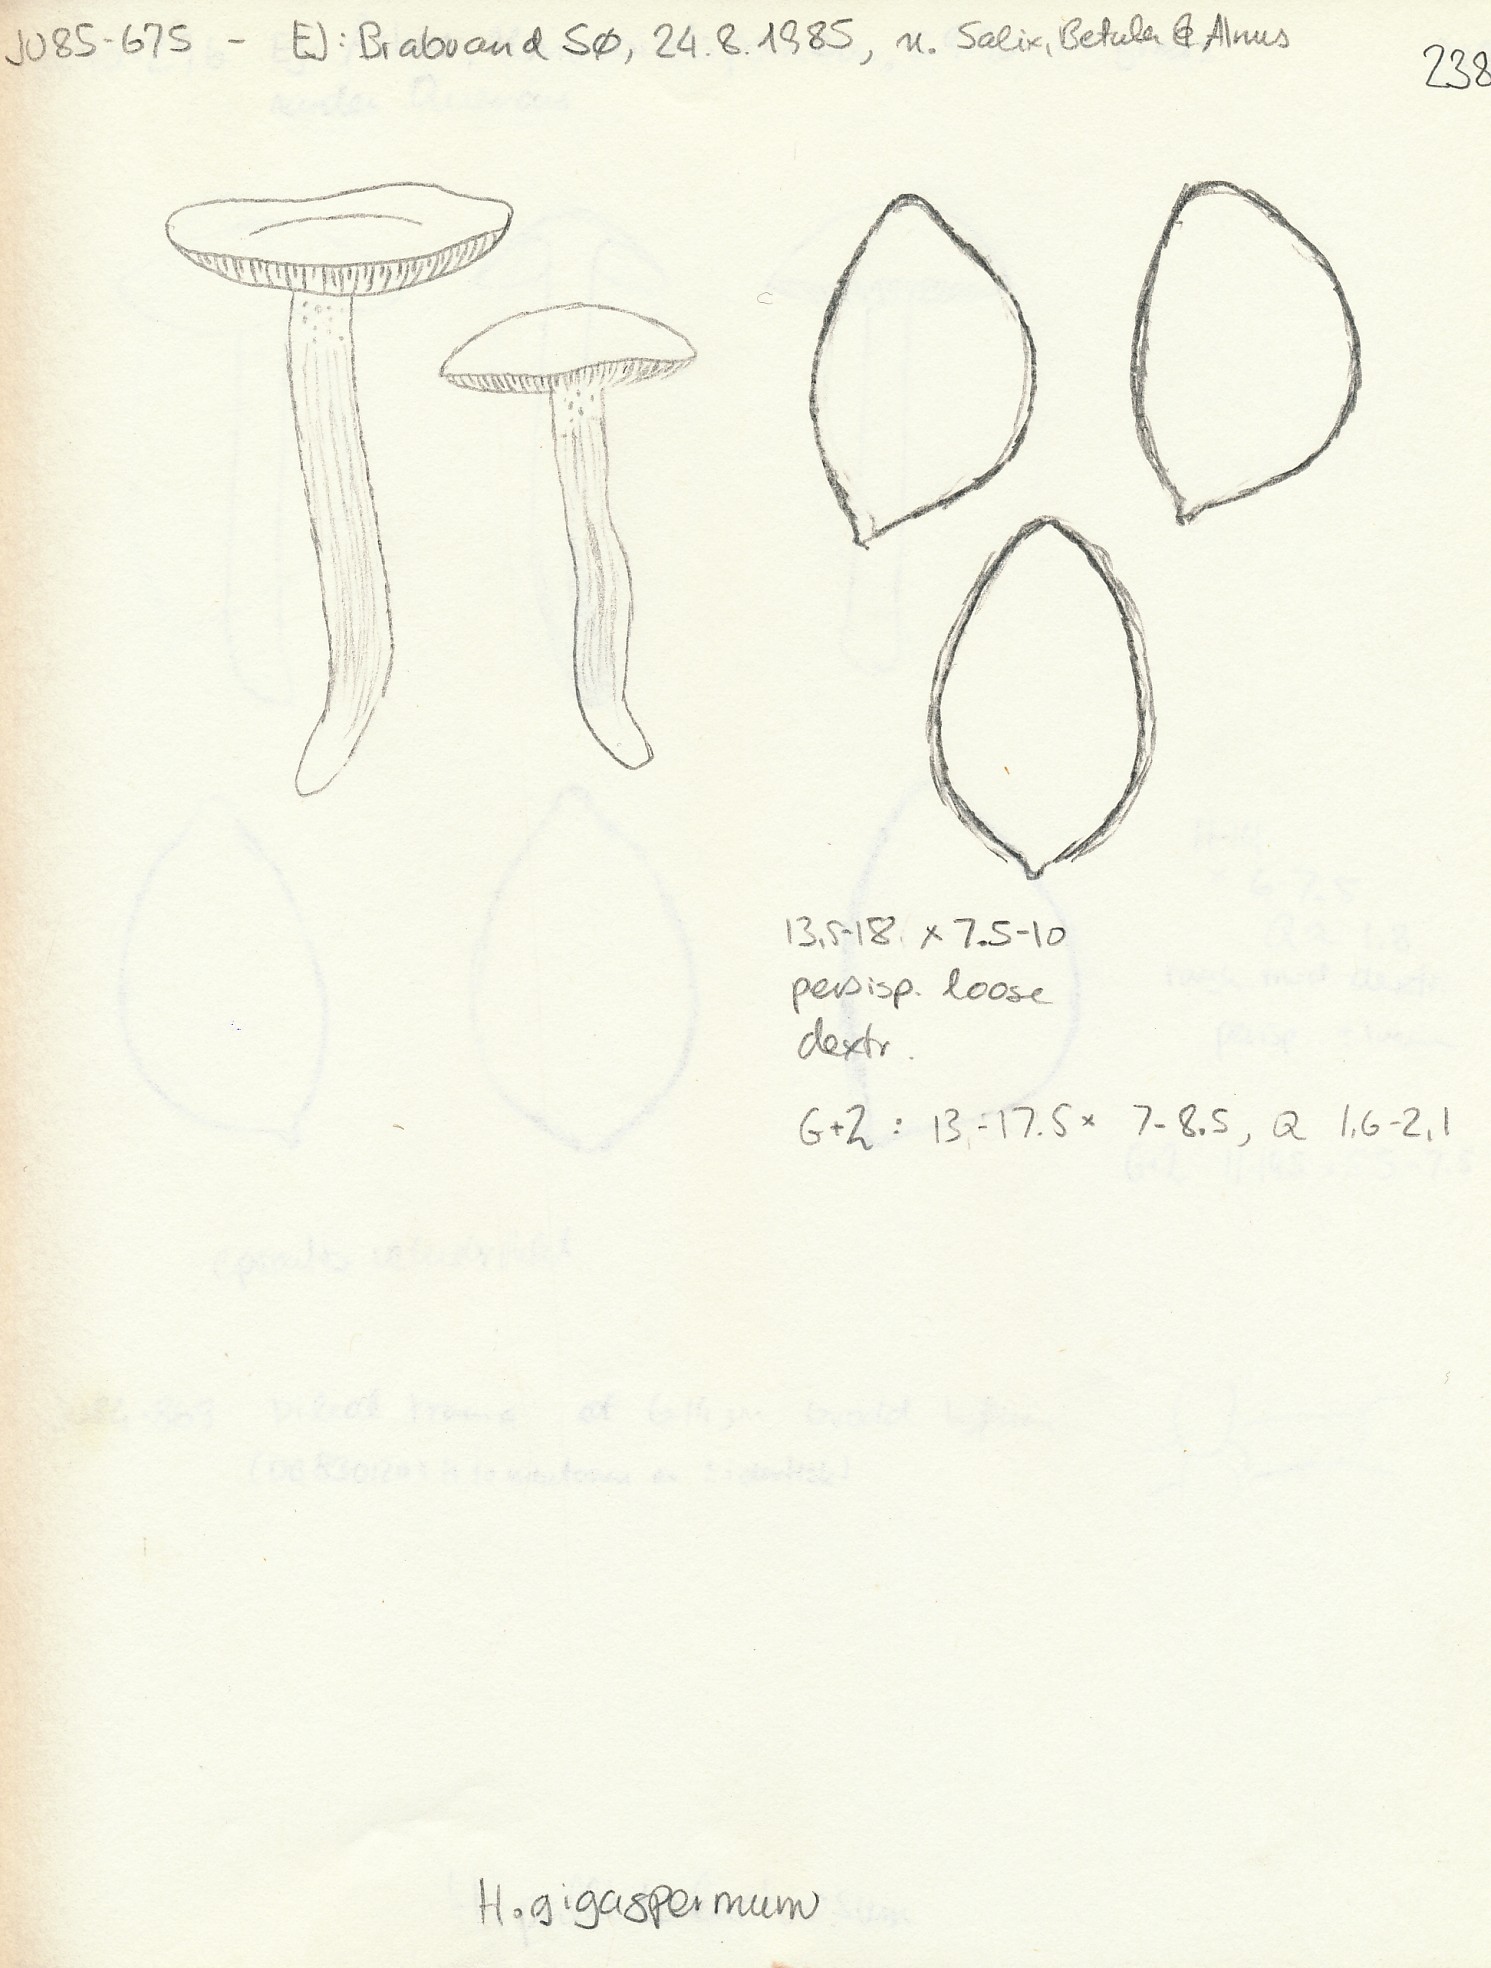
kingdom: Fungi
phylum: Basidiomycota
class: Agaricomycetes
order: Agaricales
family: Hymenogastraceae
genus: Hebeloma
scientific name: Hebeloma nauseosum
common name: storsporet tåreblad
